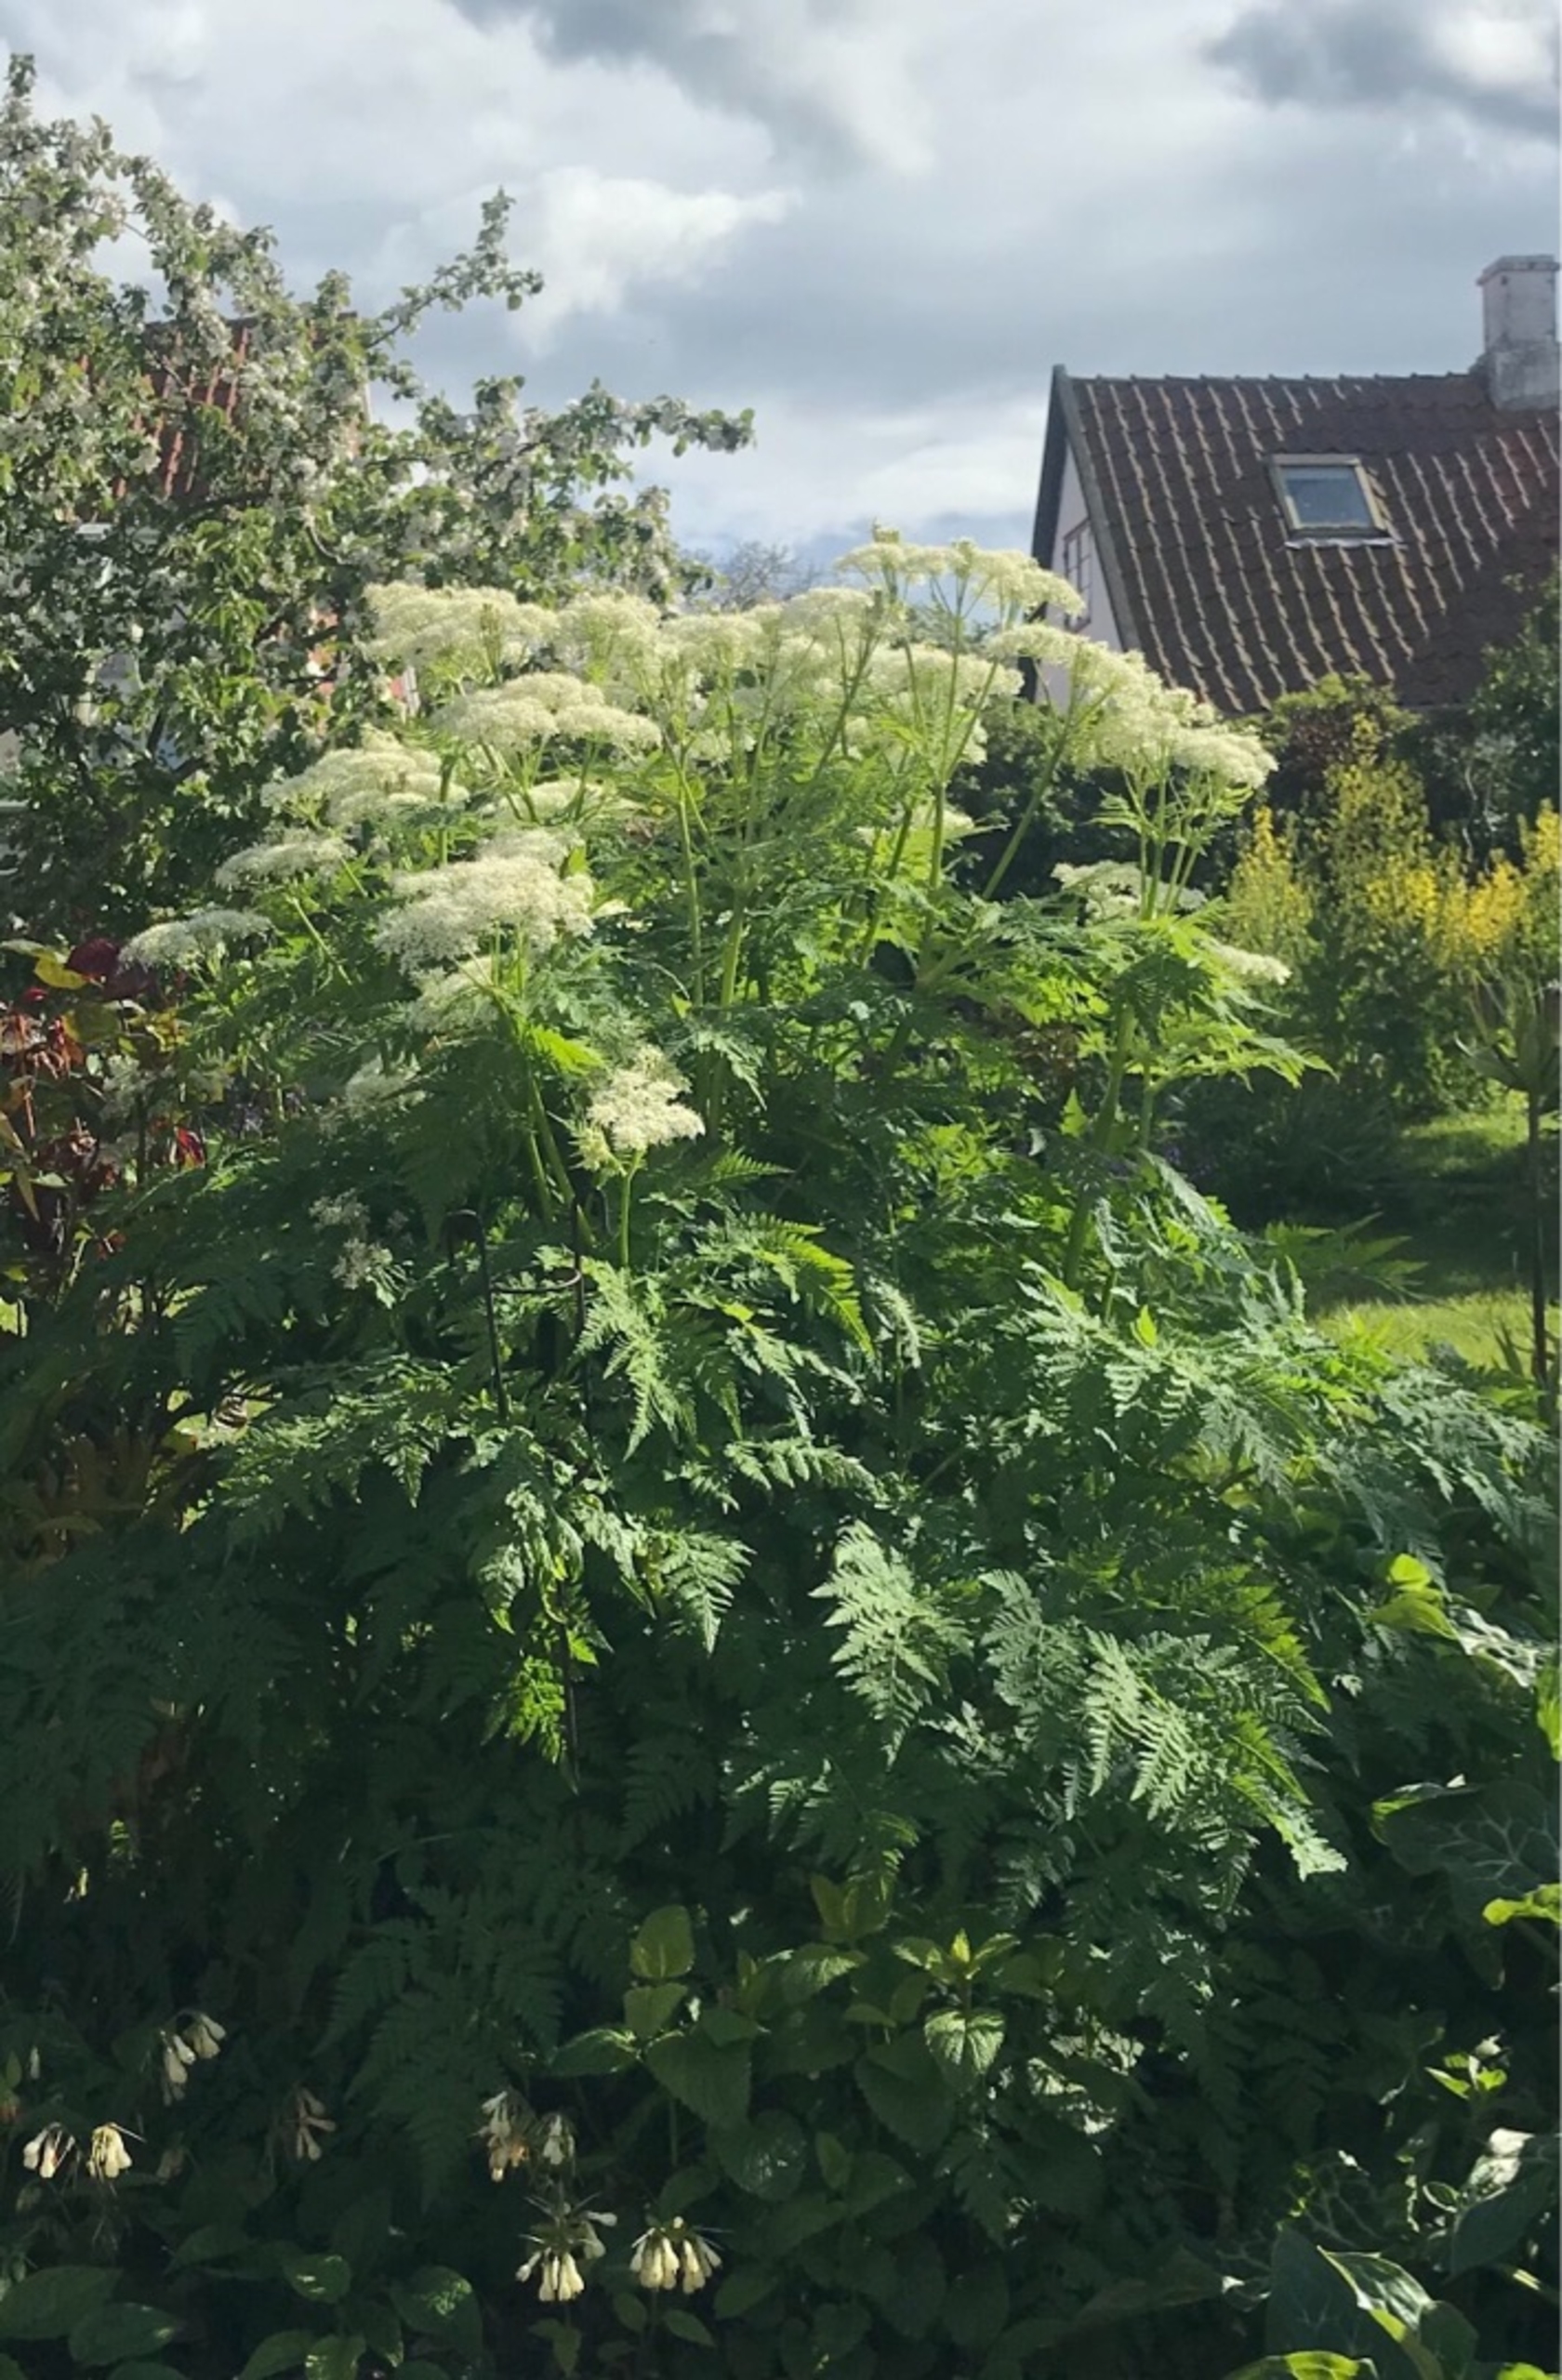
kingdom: Plantae
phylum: Tracheophyta
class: Magnoliopsida
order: Apiales
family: Apiaceae
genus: Myrrhis
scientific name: Myrrhis odorata
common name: Sødskærm
